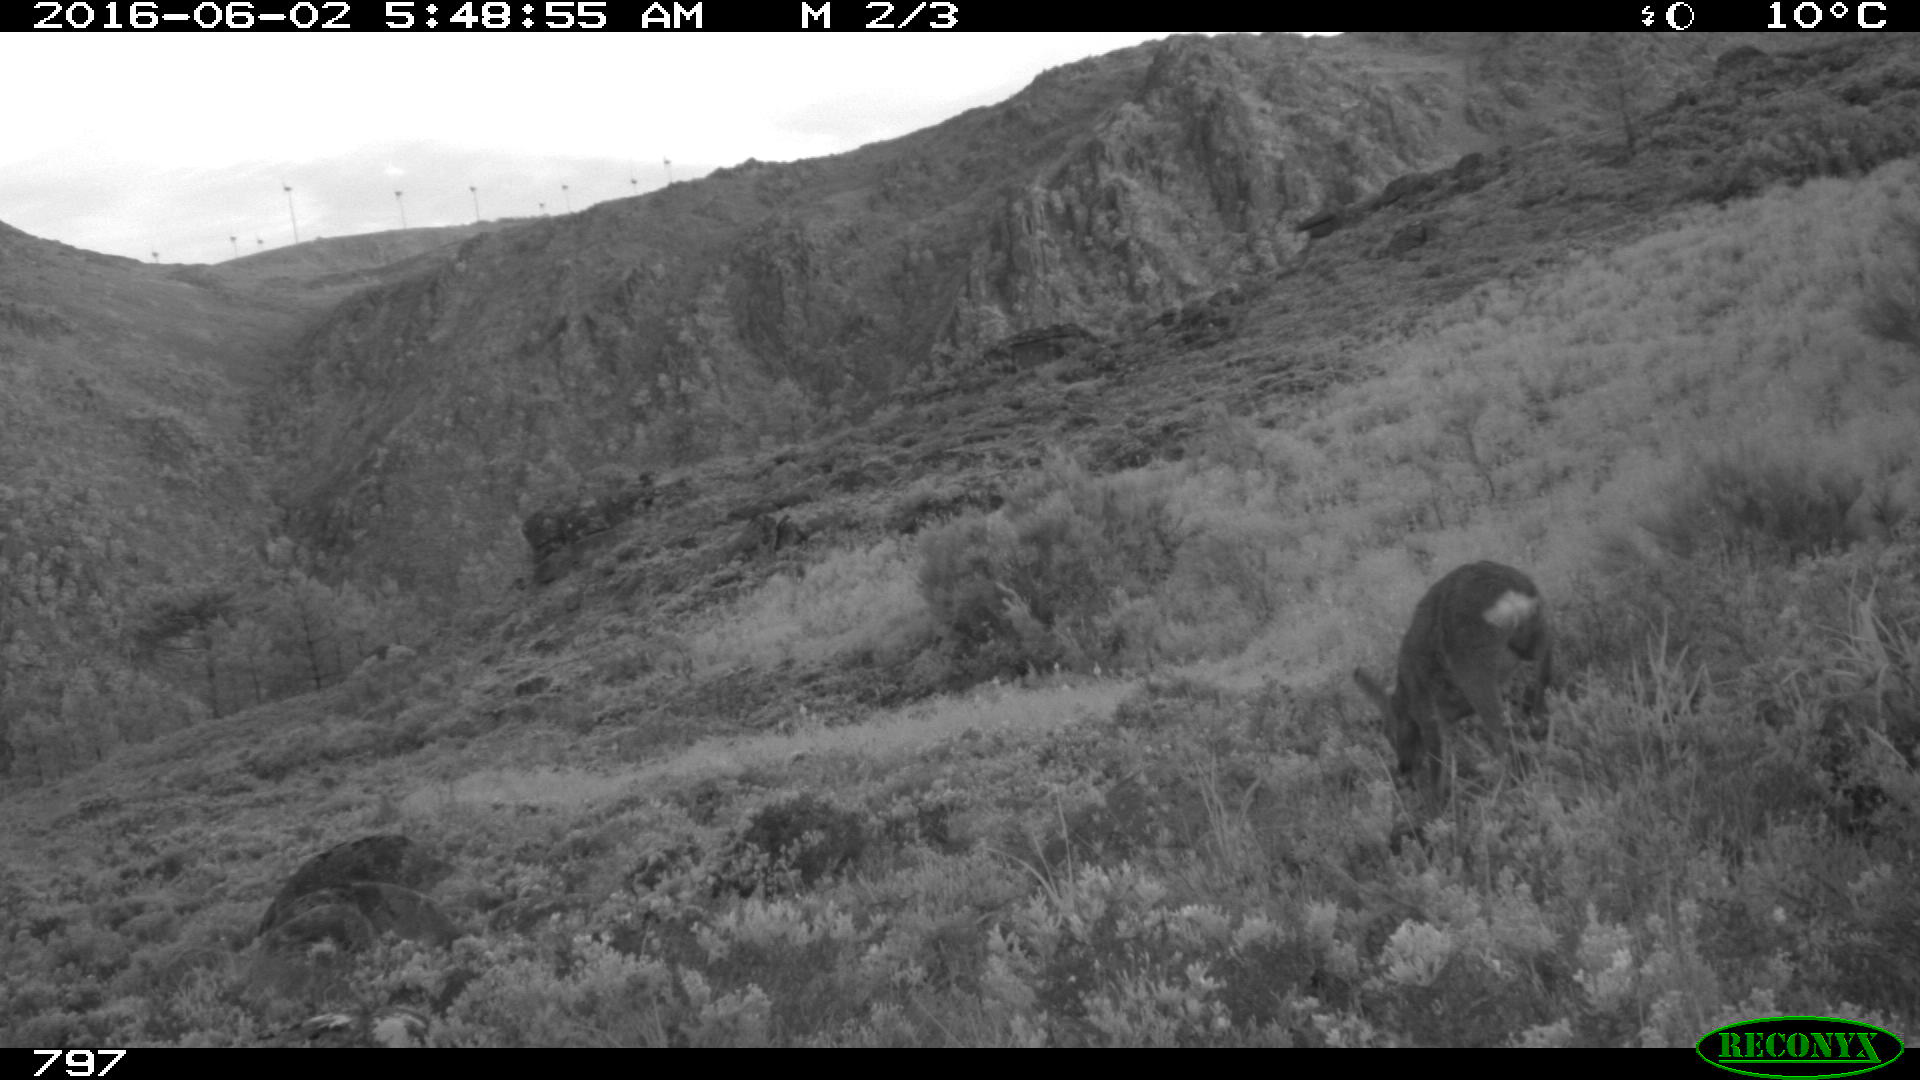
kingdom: Animalia
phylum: Chordata
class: Mammalia
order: Artiodactyla
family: Cervidae
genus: Capreolus
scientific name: Capreolus capreolus
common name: Western roe deer
